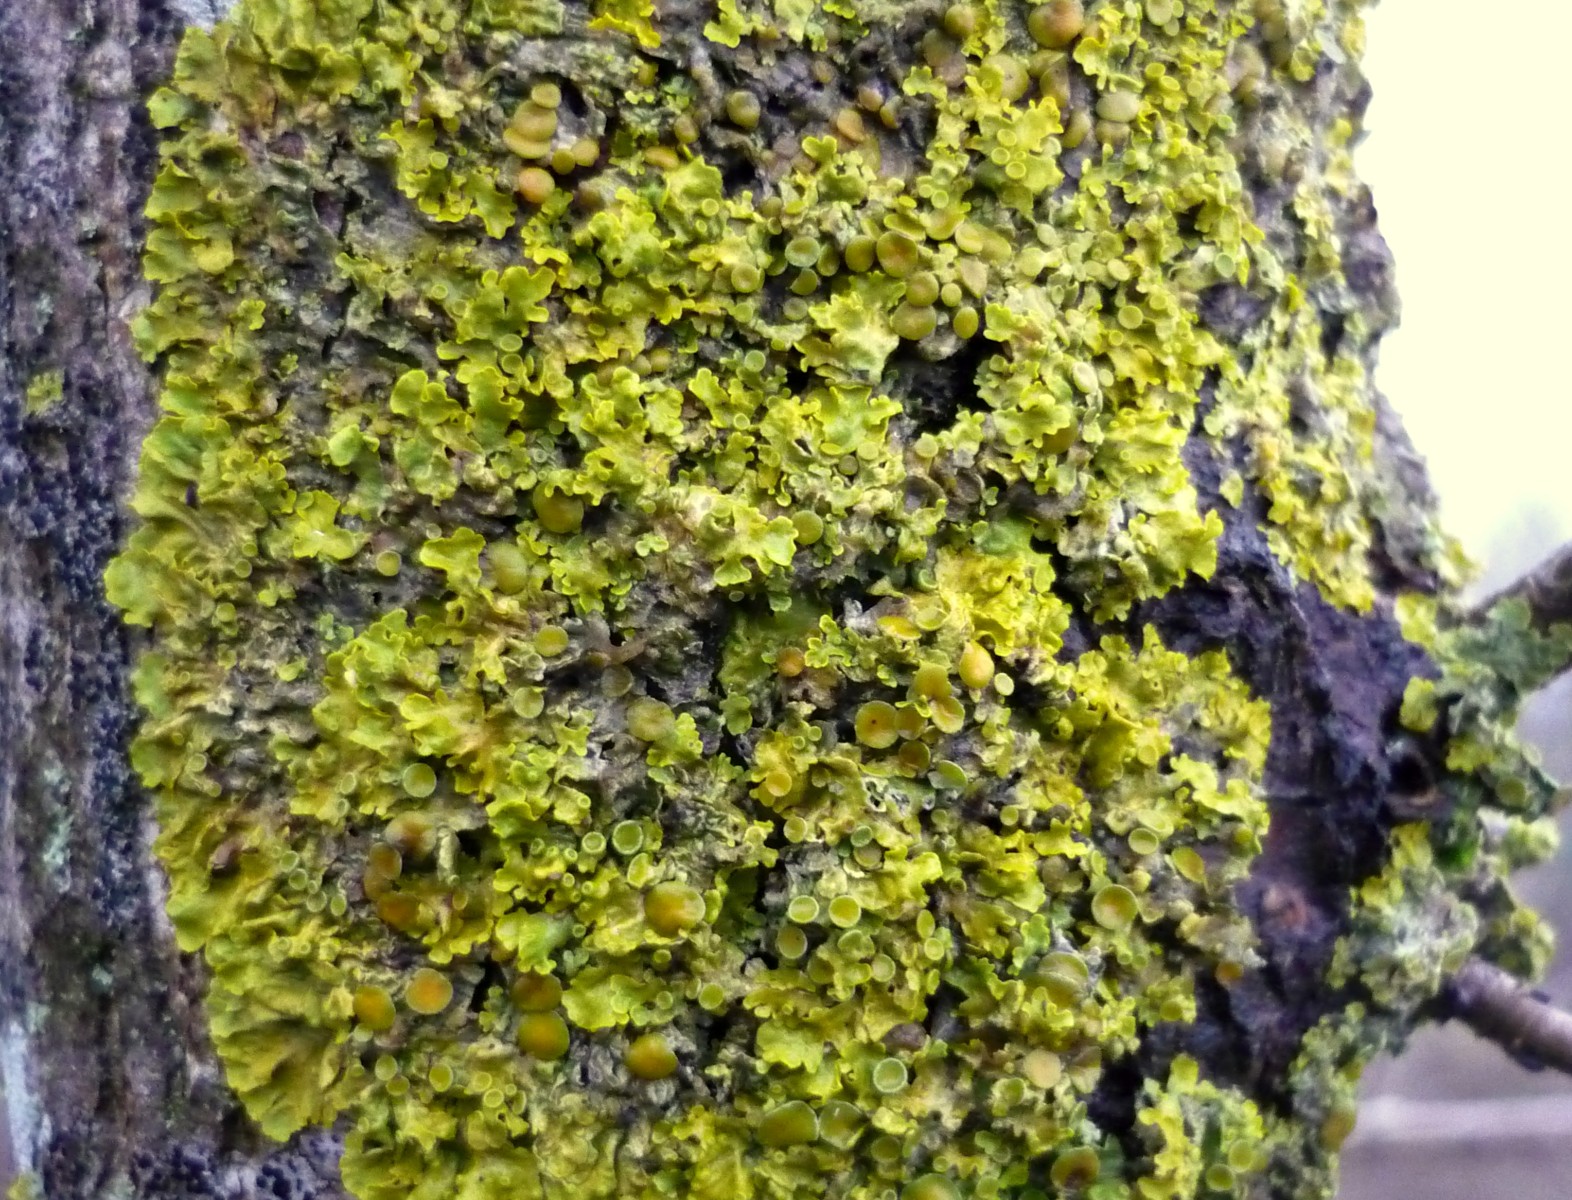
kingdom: Fungi
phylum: Ascomycota
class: Lecanoromycetes
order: Teloschistales
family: Teloschistaceae
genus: Xanthoria
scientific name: Xanthoria parietina
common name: almindelig væggelav
